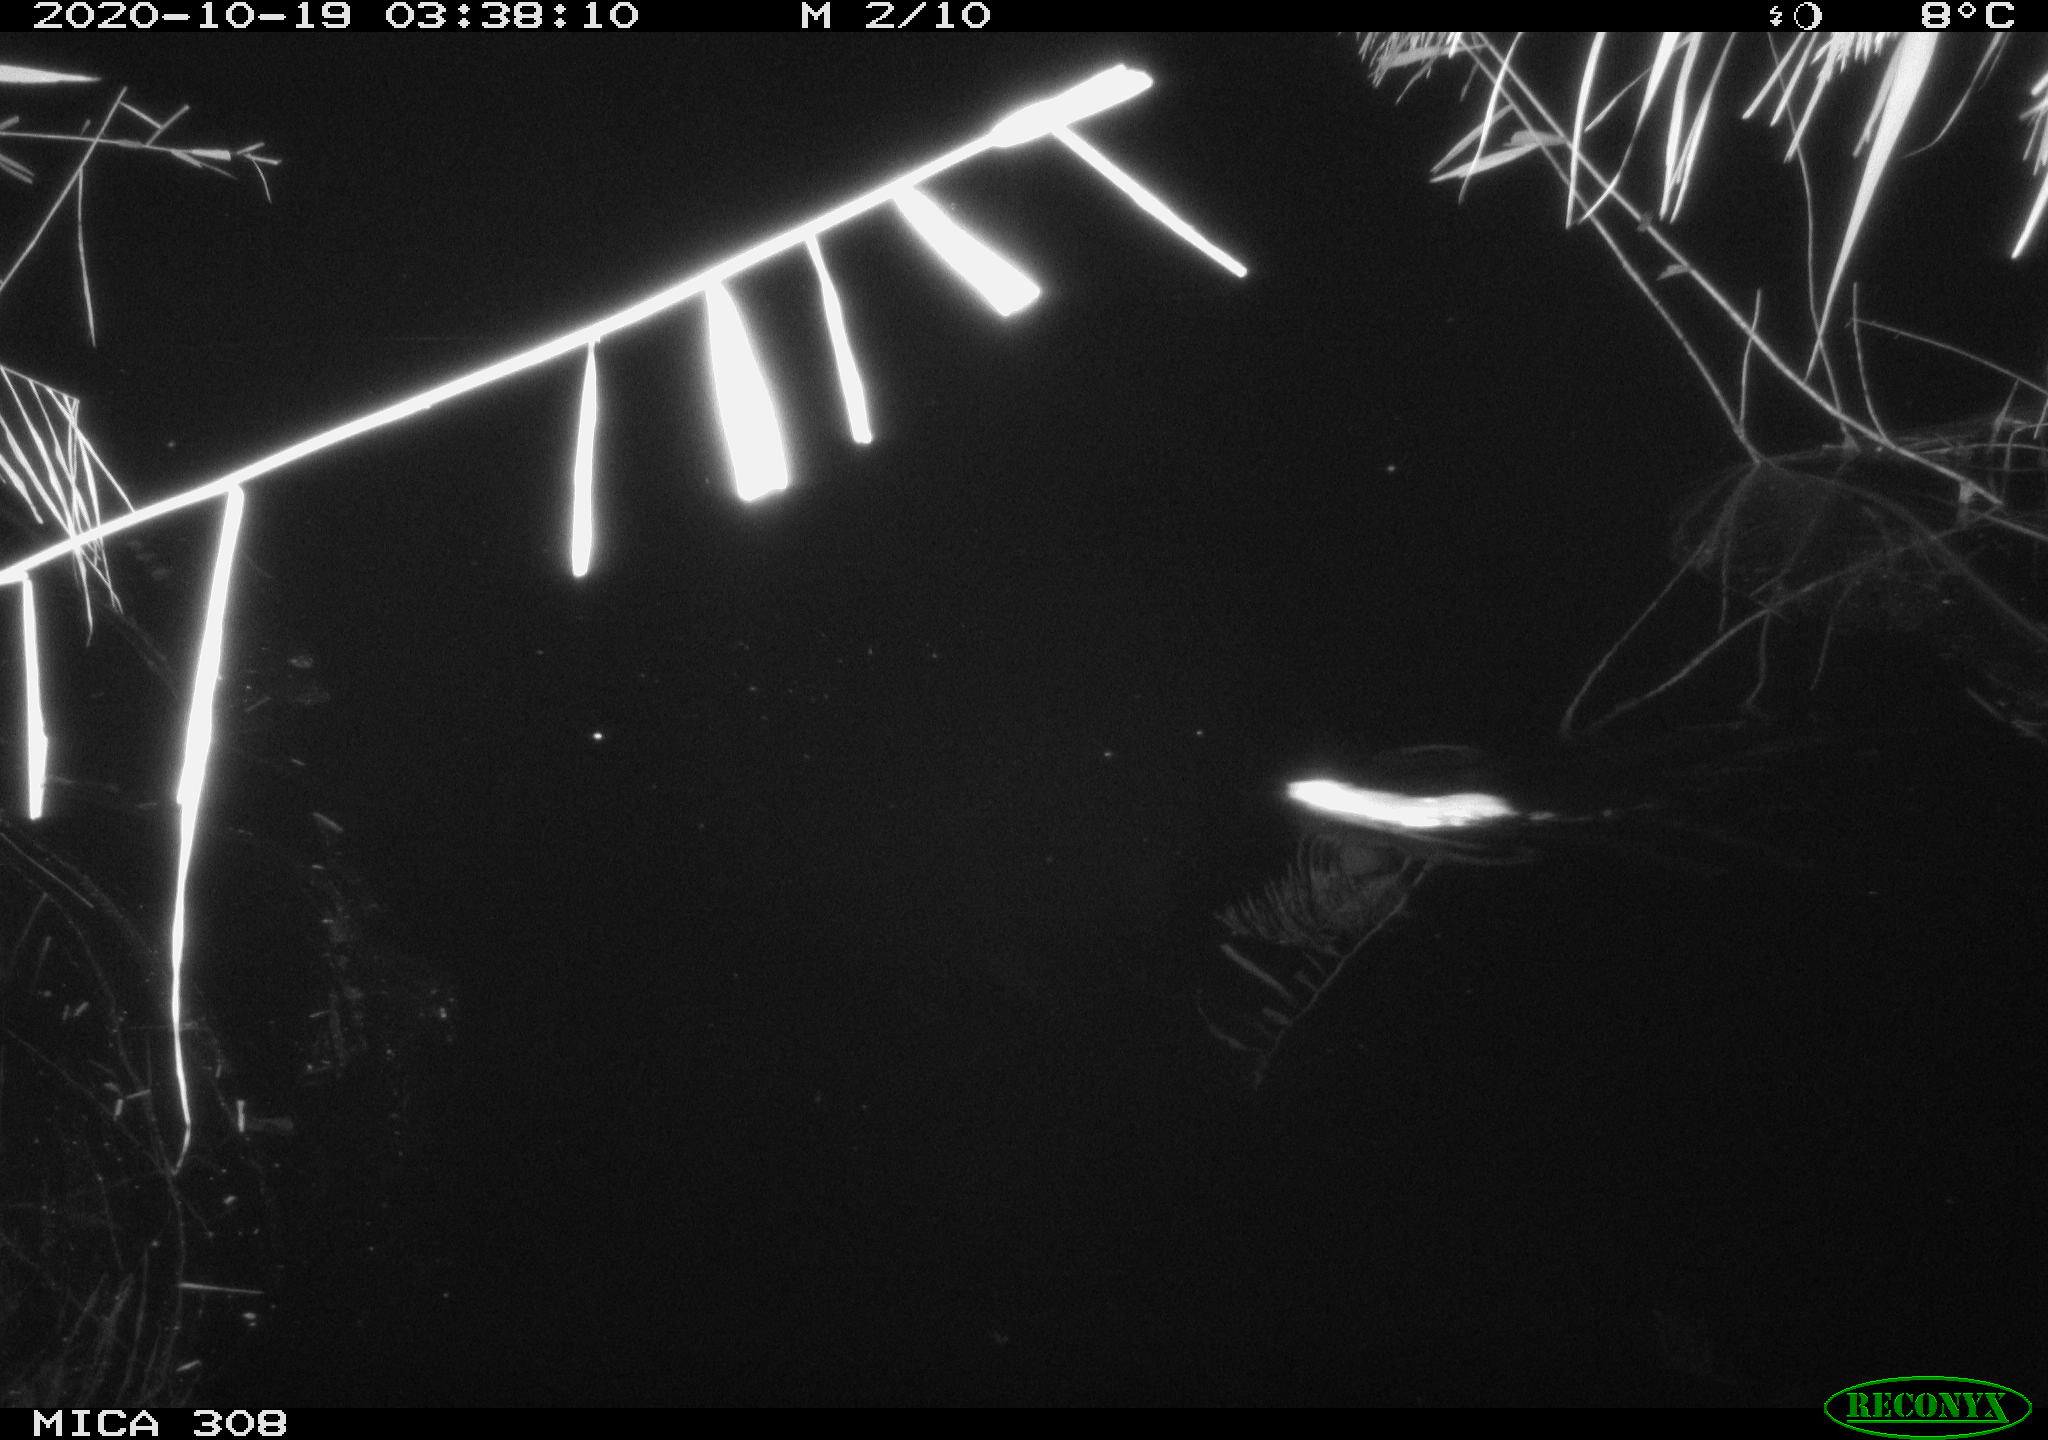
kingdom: Animalia
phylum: Chordata
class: Mammalia
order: Rodentia
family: Muridae
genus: Rattus
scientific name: Rattus norvegicus
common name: Brown rat
